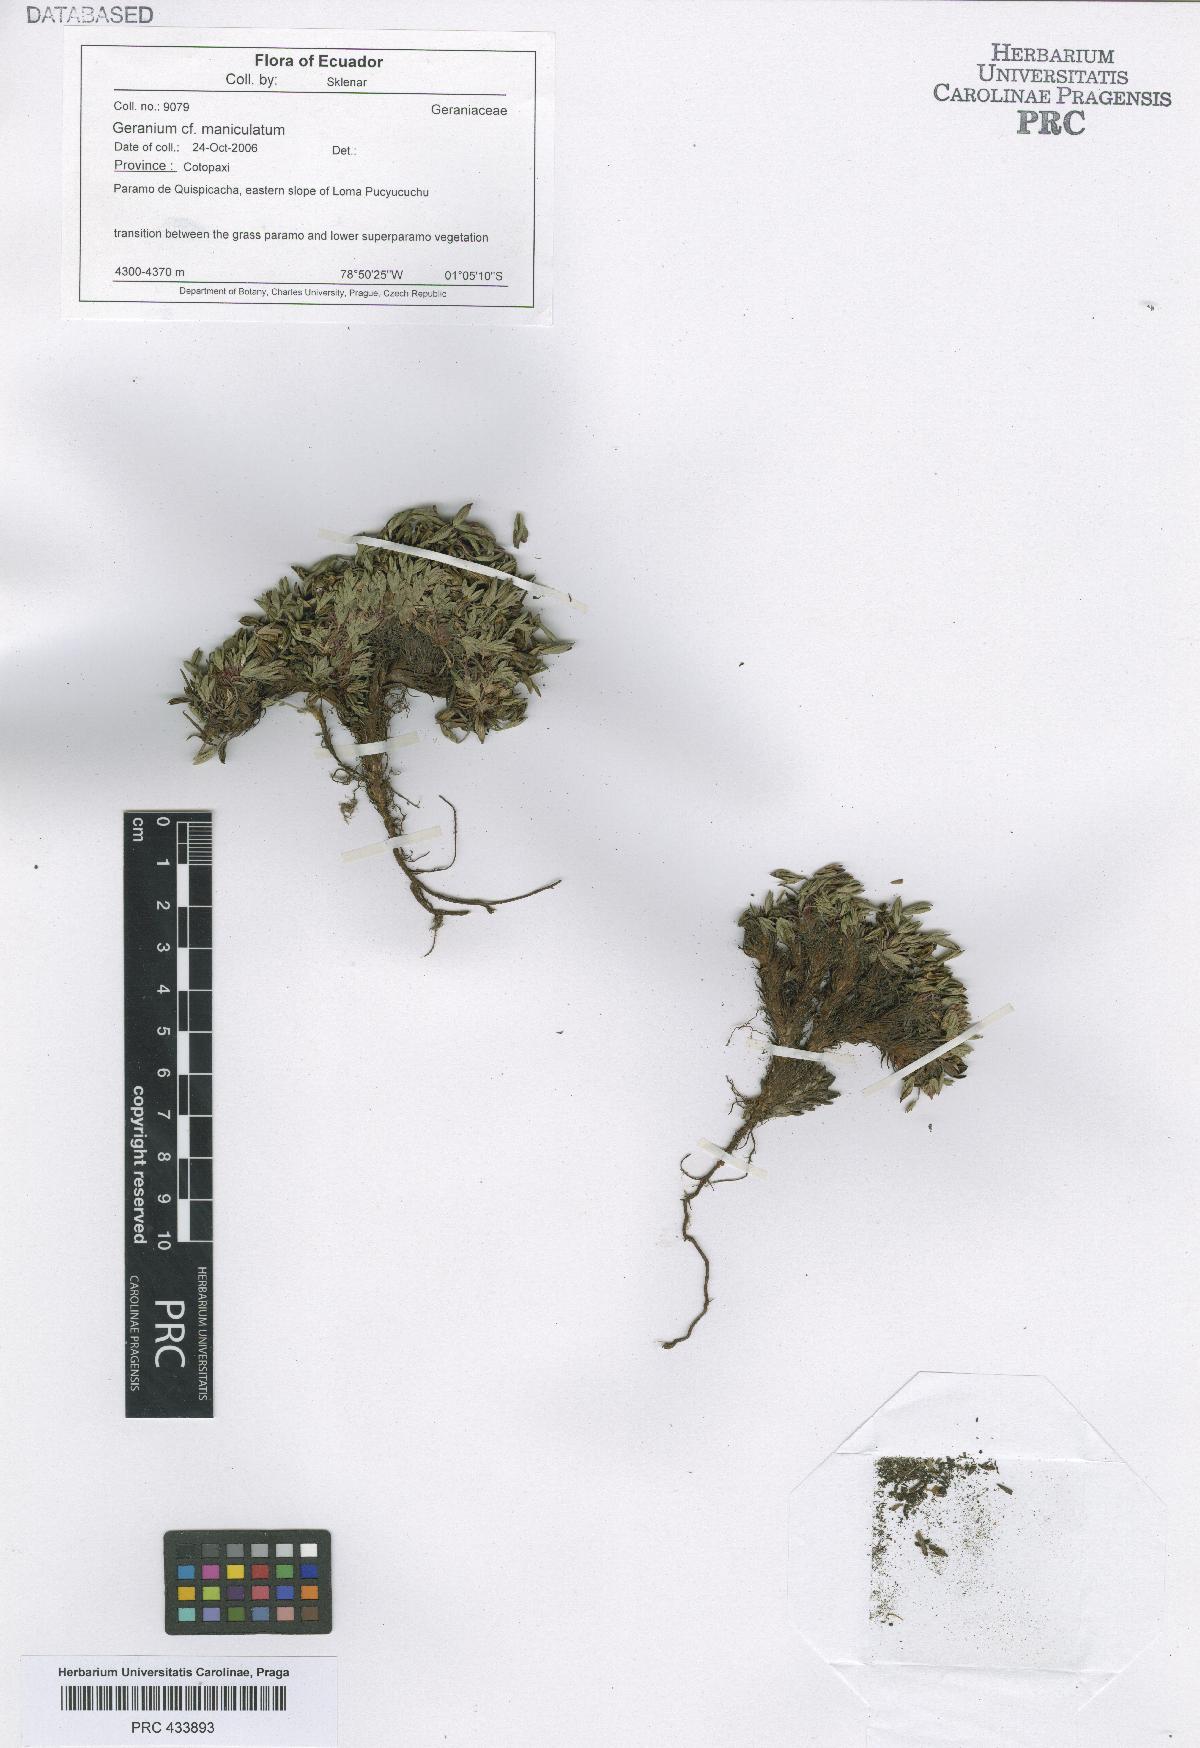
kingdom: Plantae
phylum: Tracheophyta
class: Magnoliopsida
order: Geraniales
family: Geraniaceae
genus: Geranium
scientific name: Geranium maniculatum
